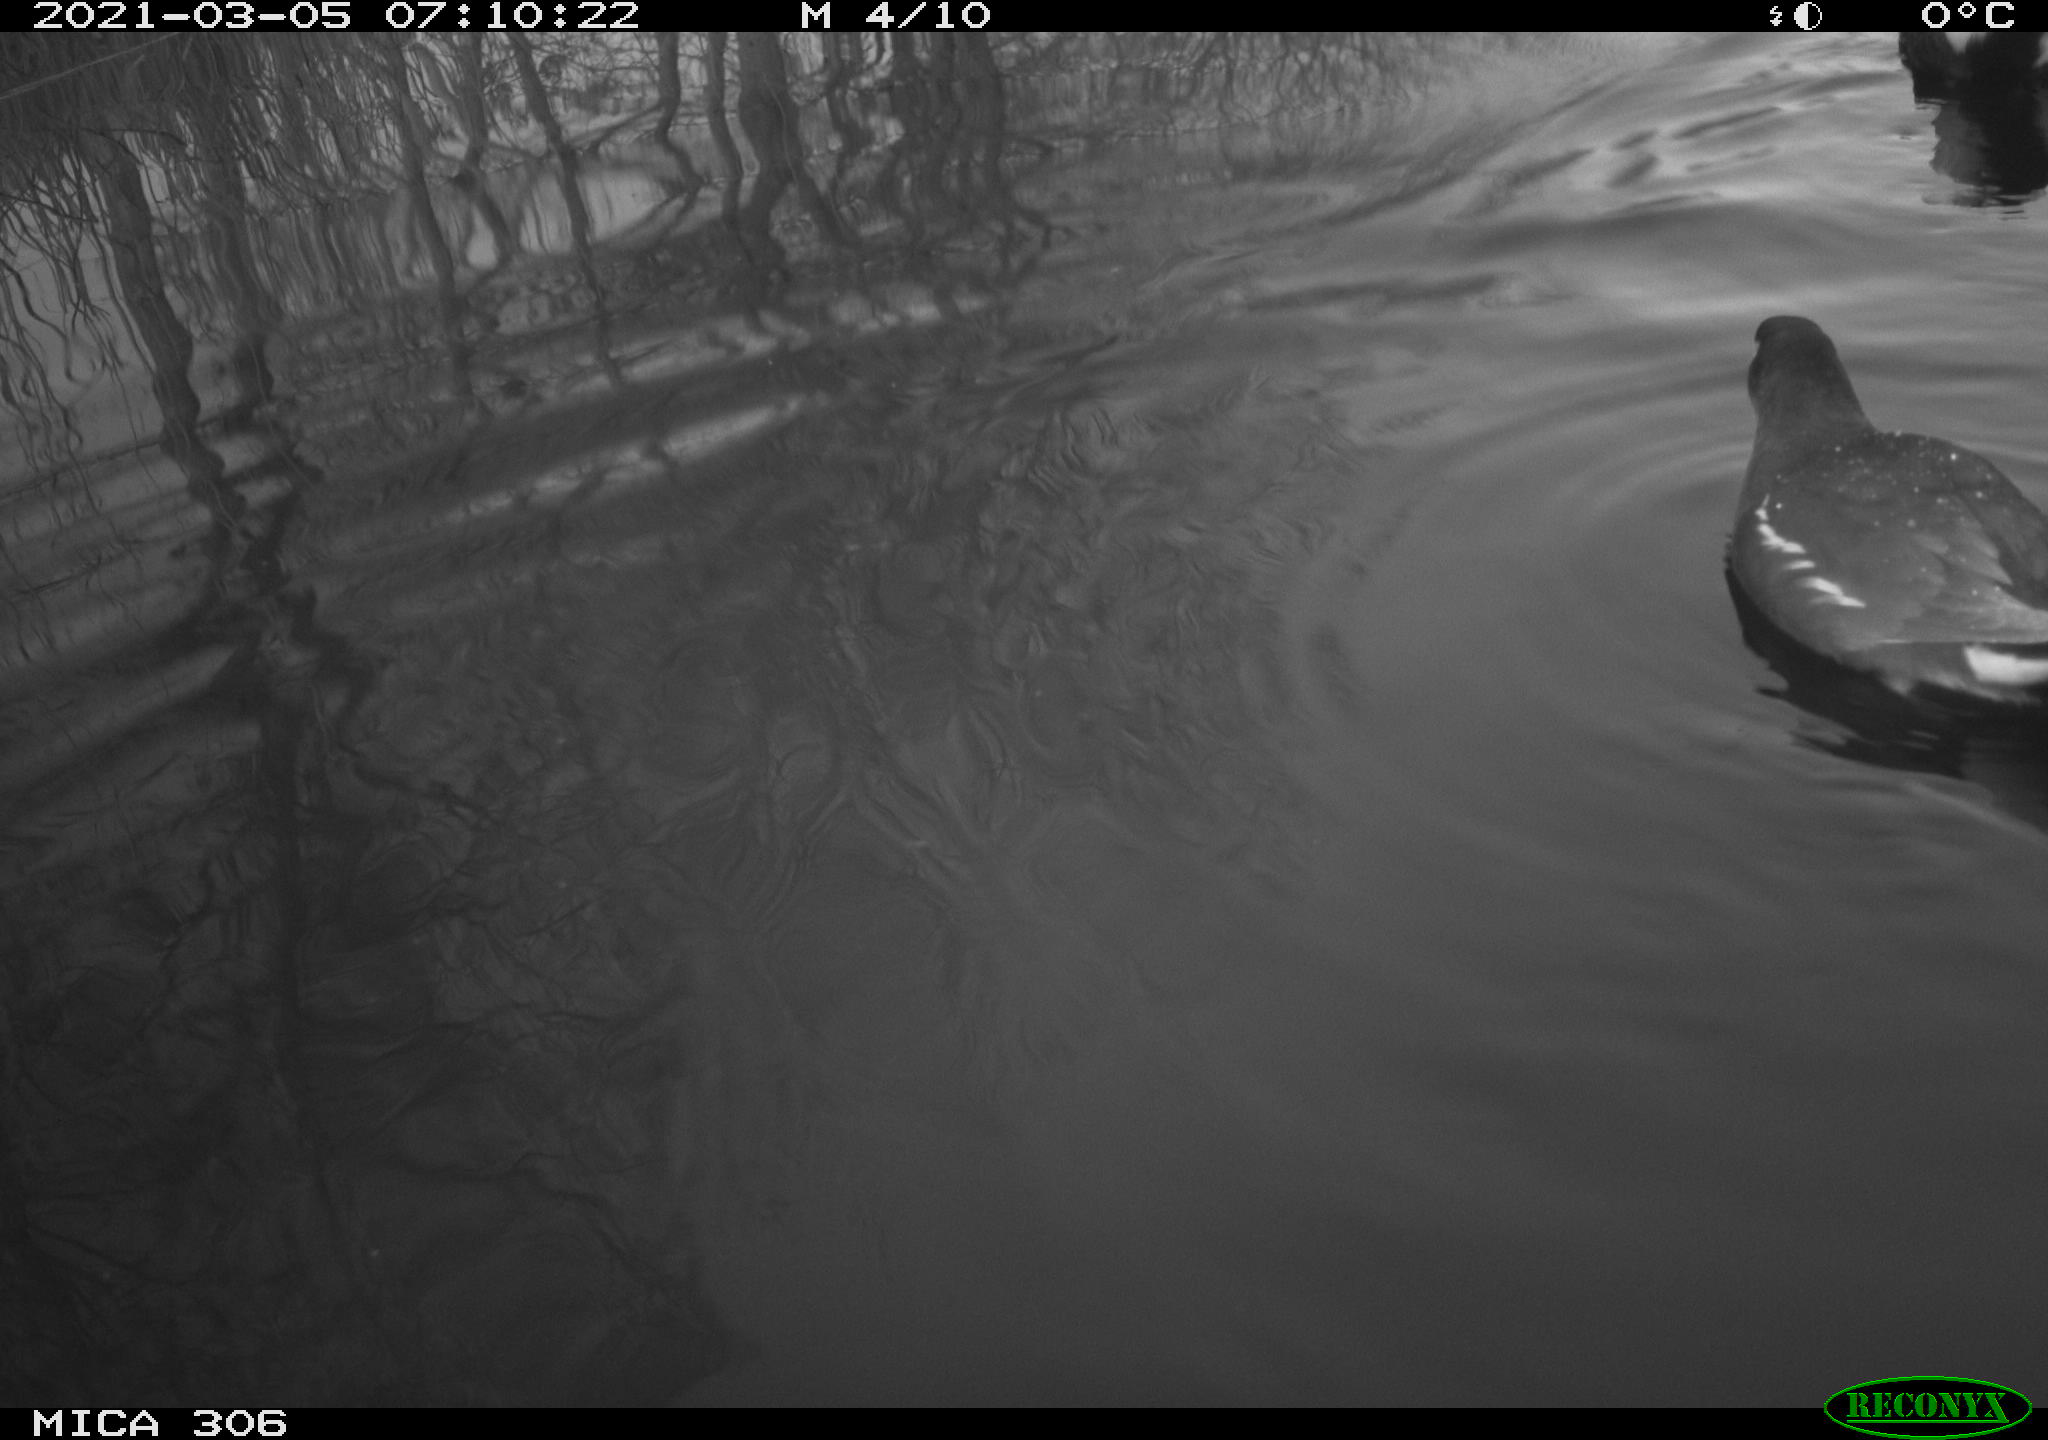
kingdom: Animalia
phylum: Chordata
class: Aves
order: Gruiformes
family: Rallidae
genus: Gallinula
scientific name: Gallinula chloropus
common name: Common moorhen
